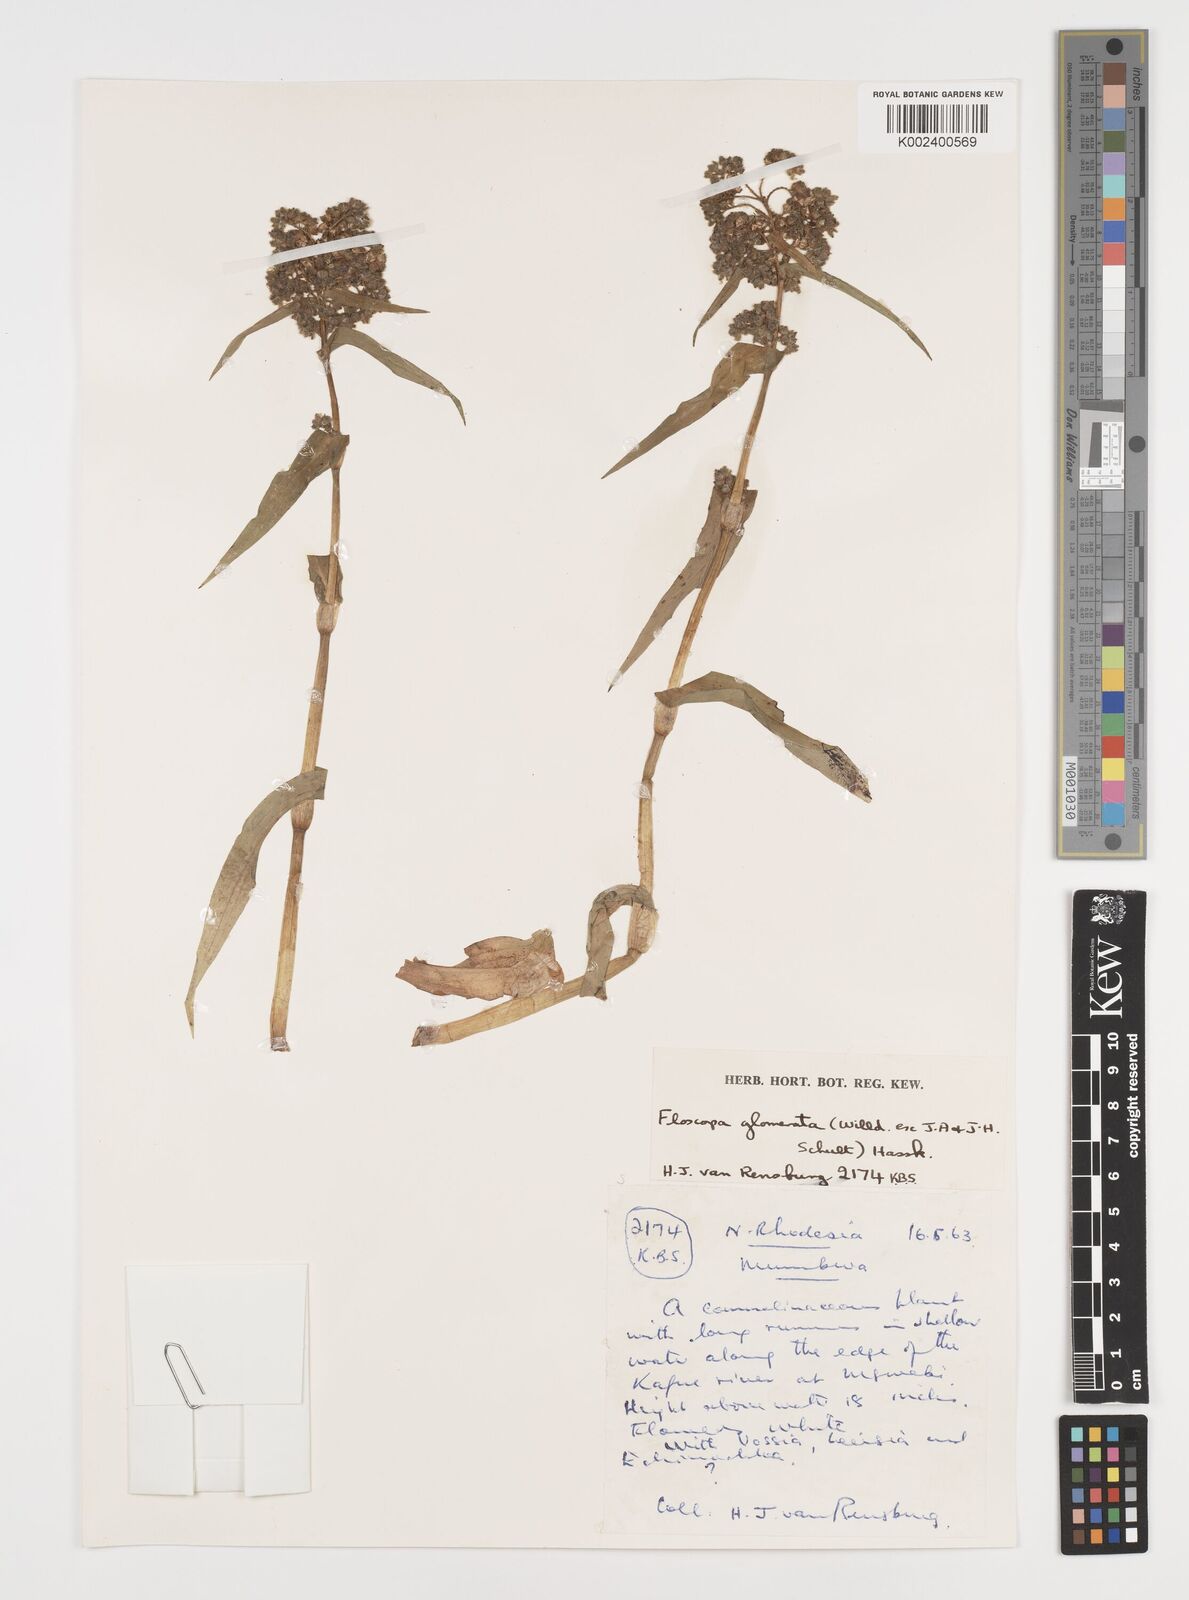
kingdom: Plantae
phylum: Tracheophyta
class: Liliopsida
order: Commelinales
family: Commelinaceae
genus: Floscopa
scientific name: Floscopa glomerata
